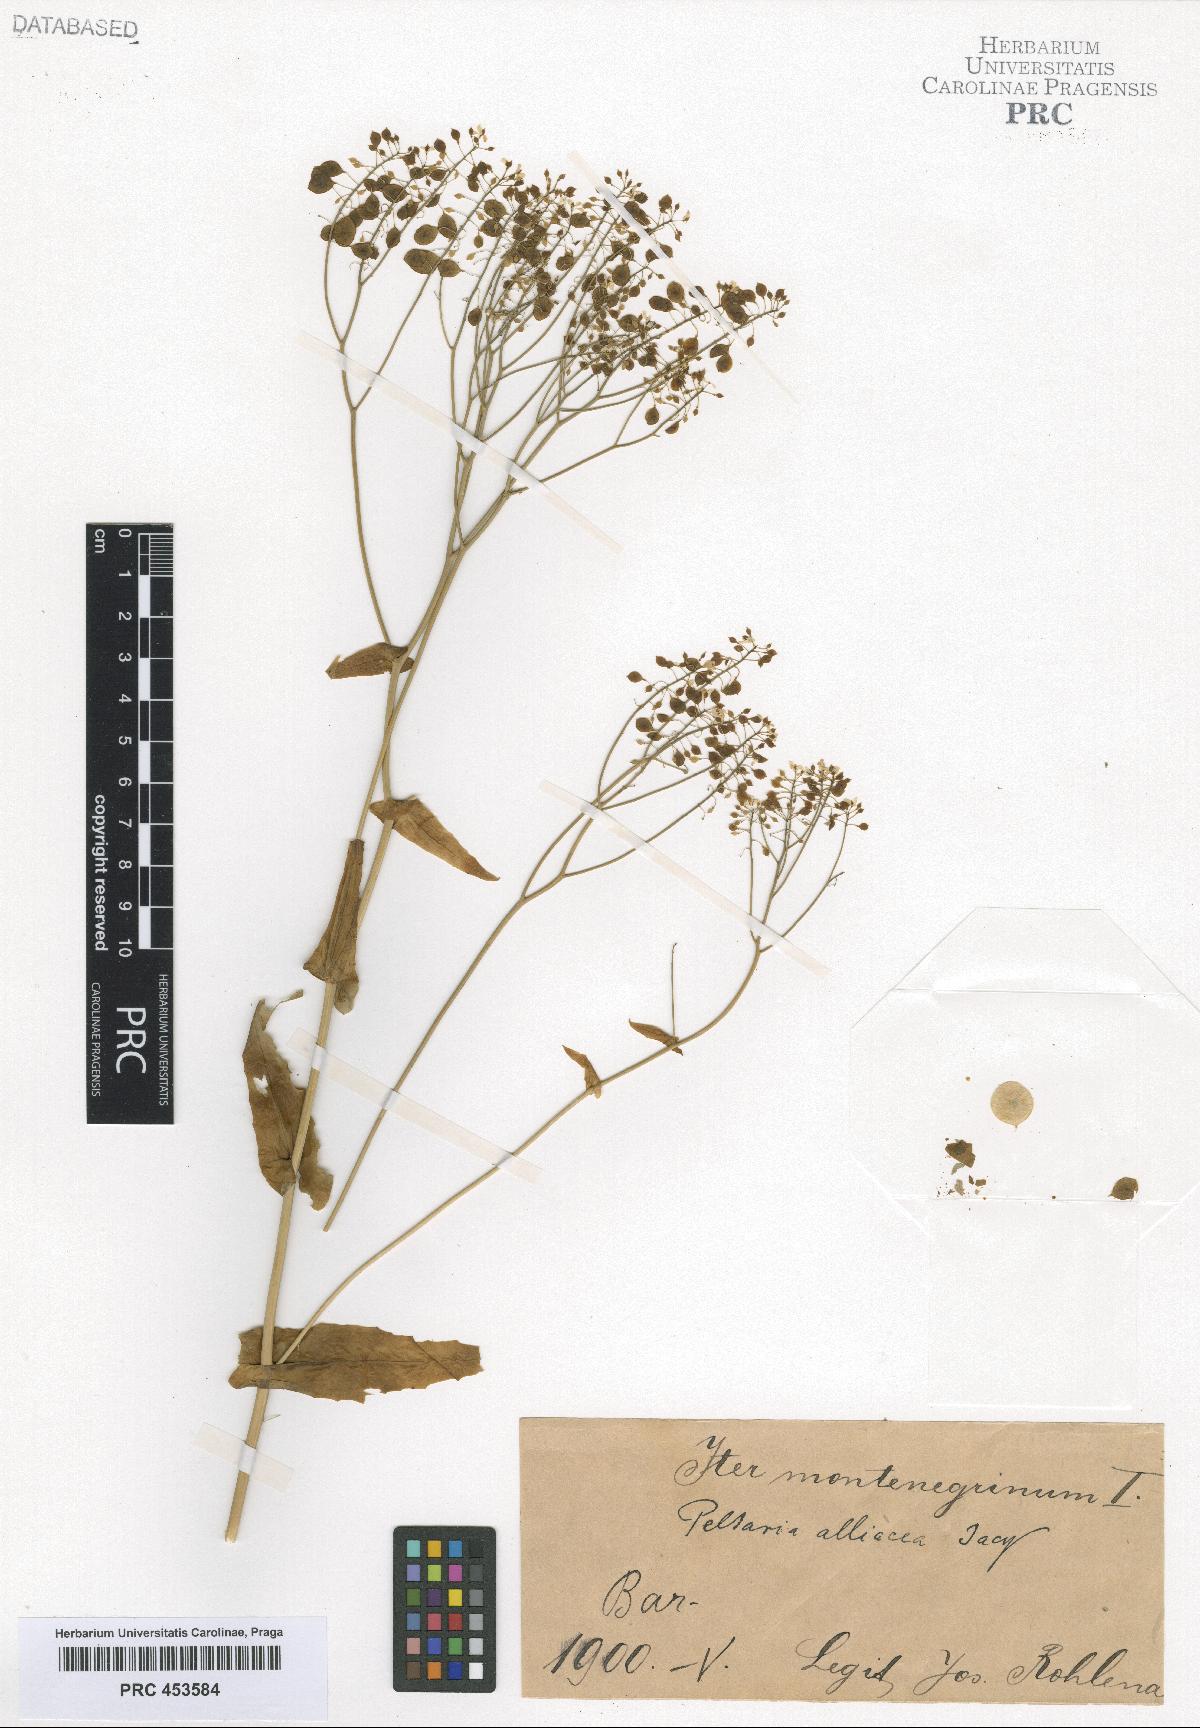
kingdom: Plantae
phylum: Tracheophyta
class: Magnoliopsida
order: Brassicales
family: Brassicaceae
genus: Peltaria
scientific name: Peltaria alliacea
